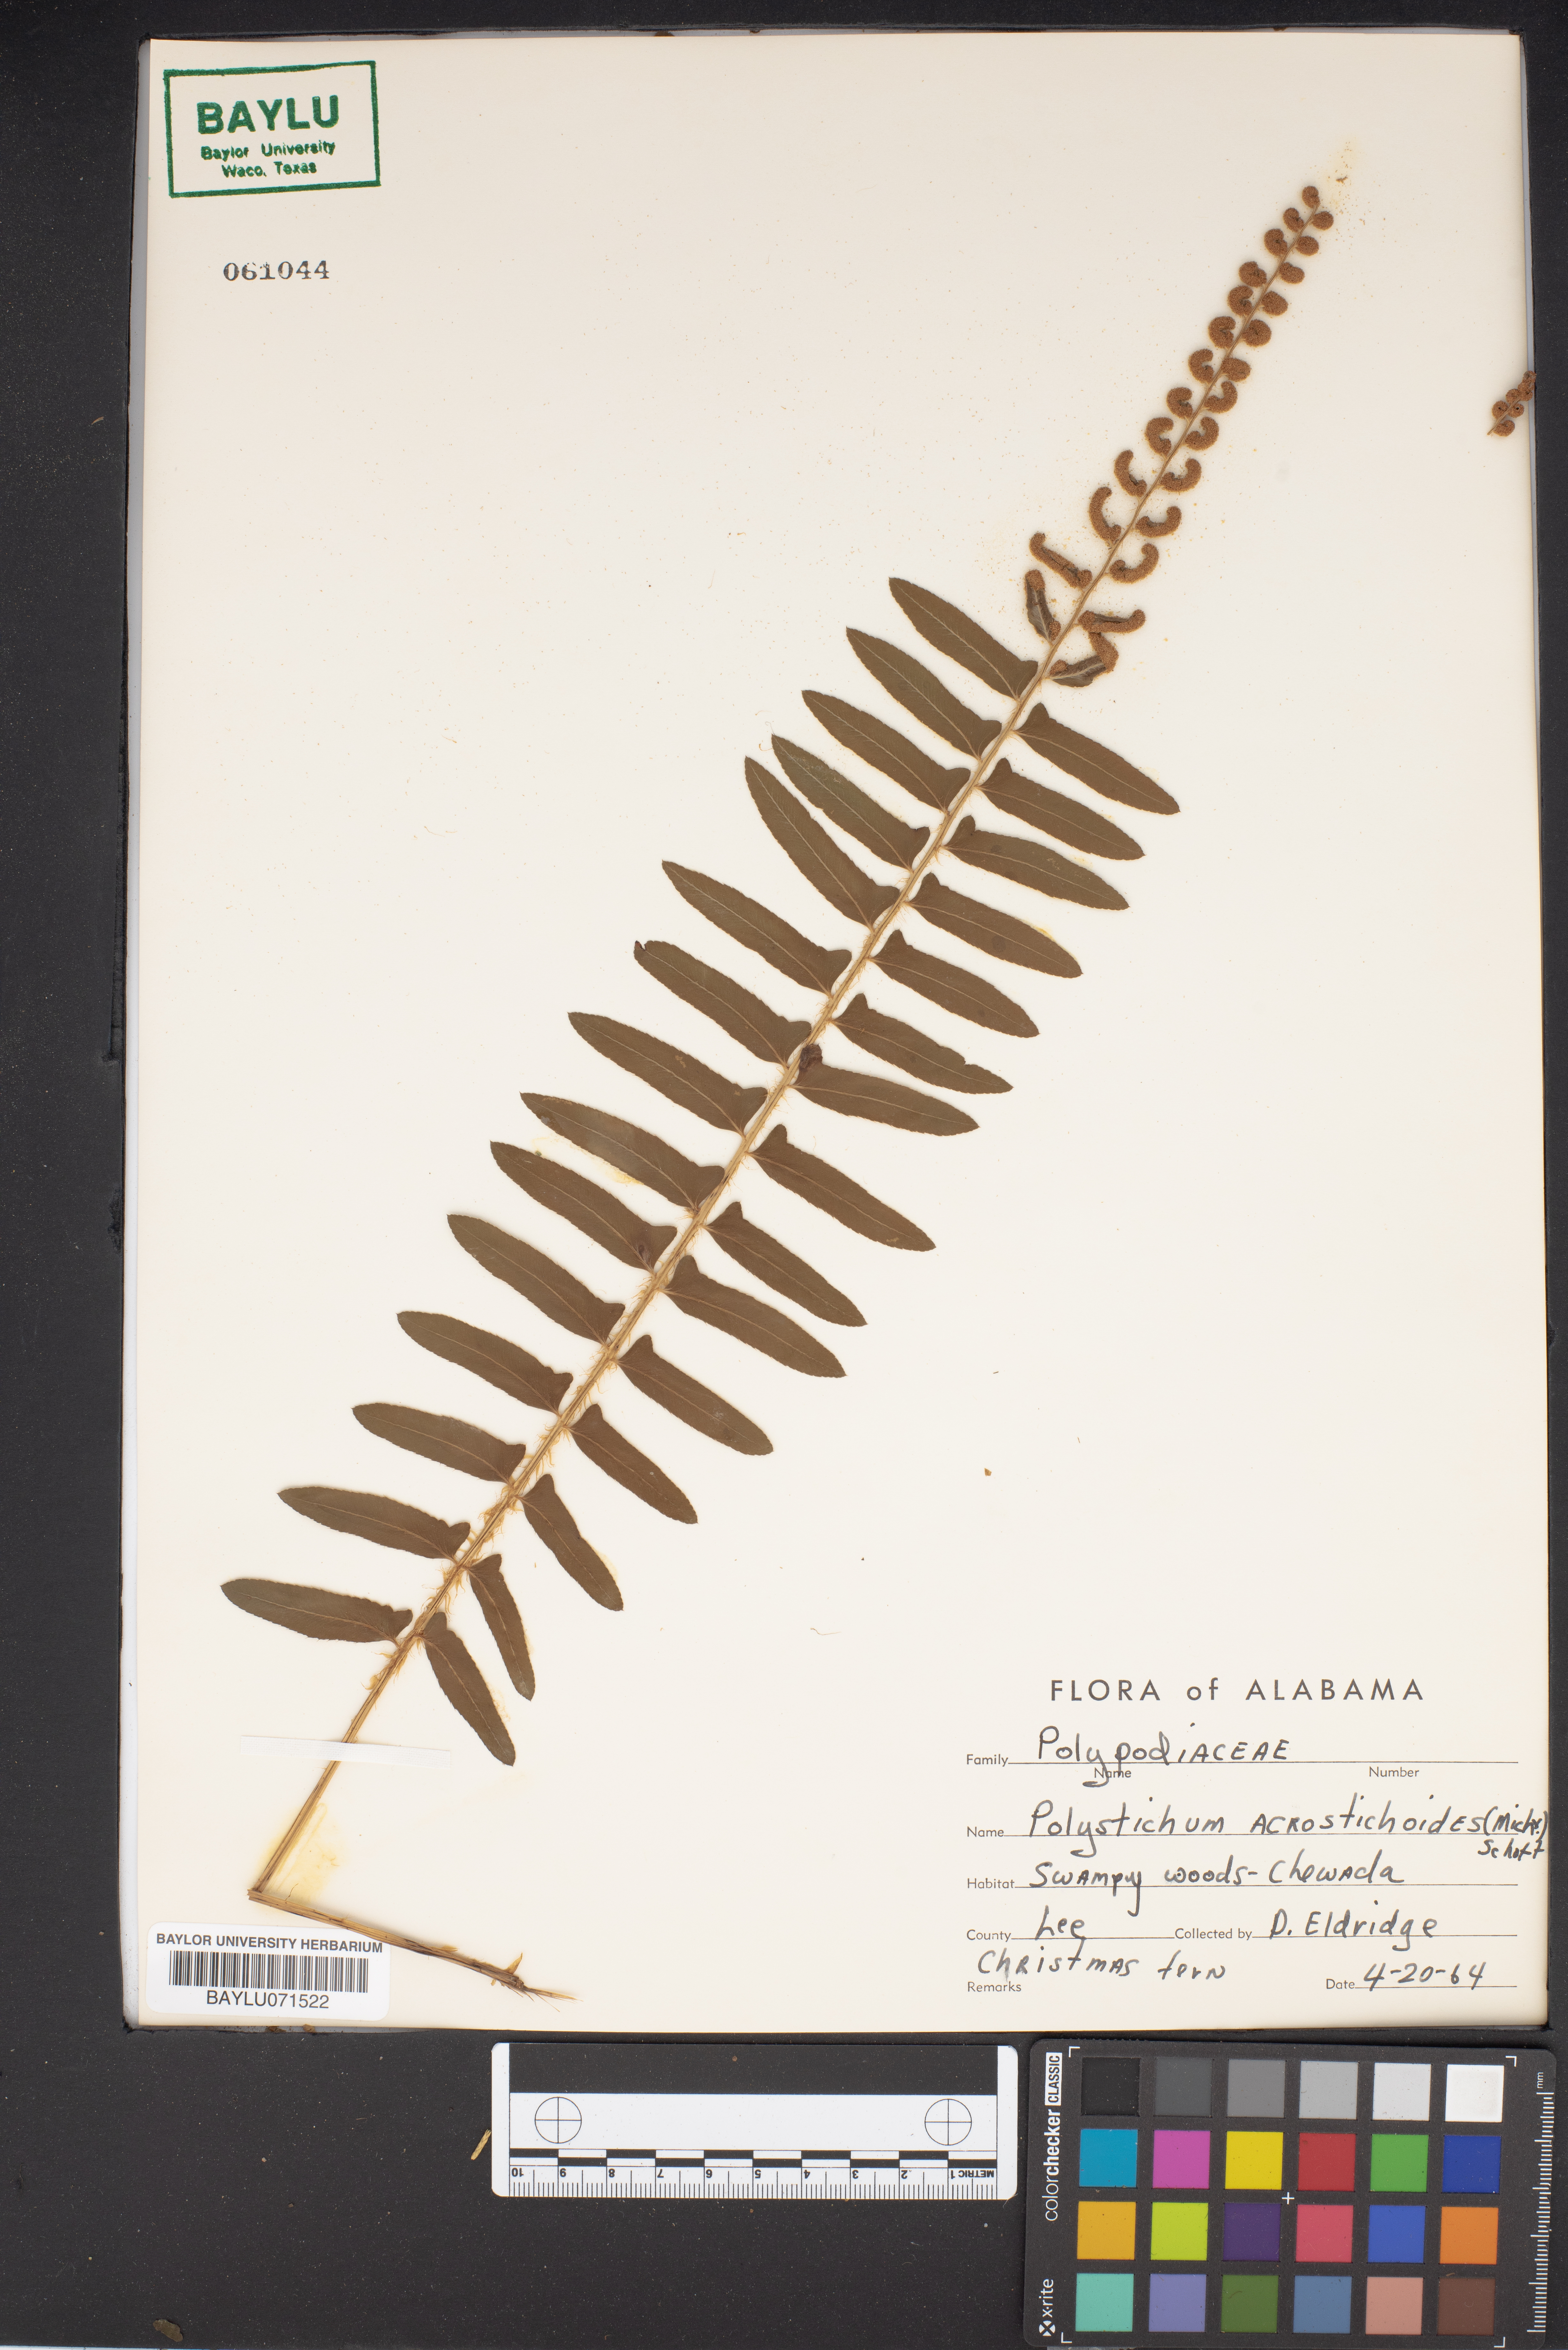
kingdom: Plantae
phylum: Tracheophyta
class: Polypodiopsida
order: Polypodiales
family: Dryopteridaceae
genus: Polystichum
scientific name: Polystichum acrostichoides
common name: Christmas fern
